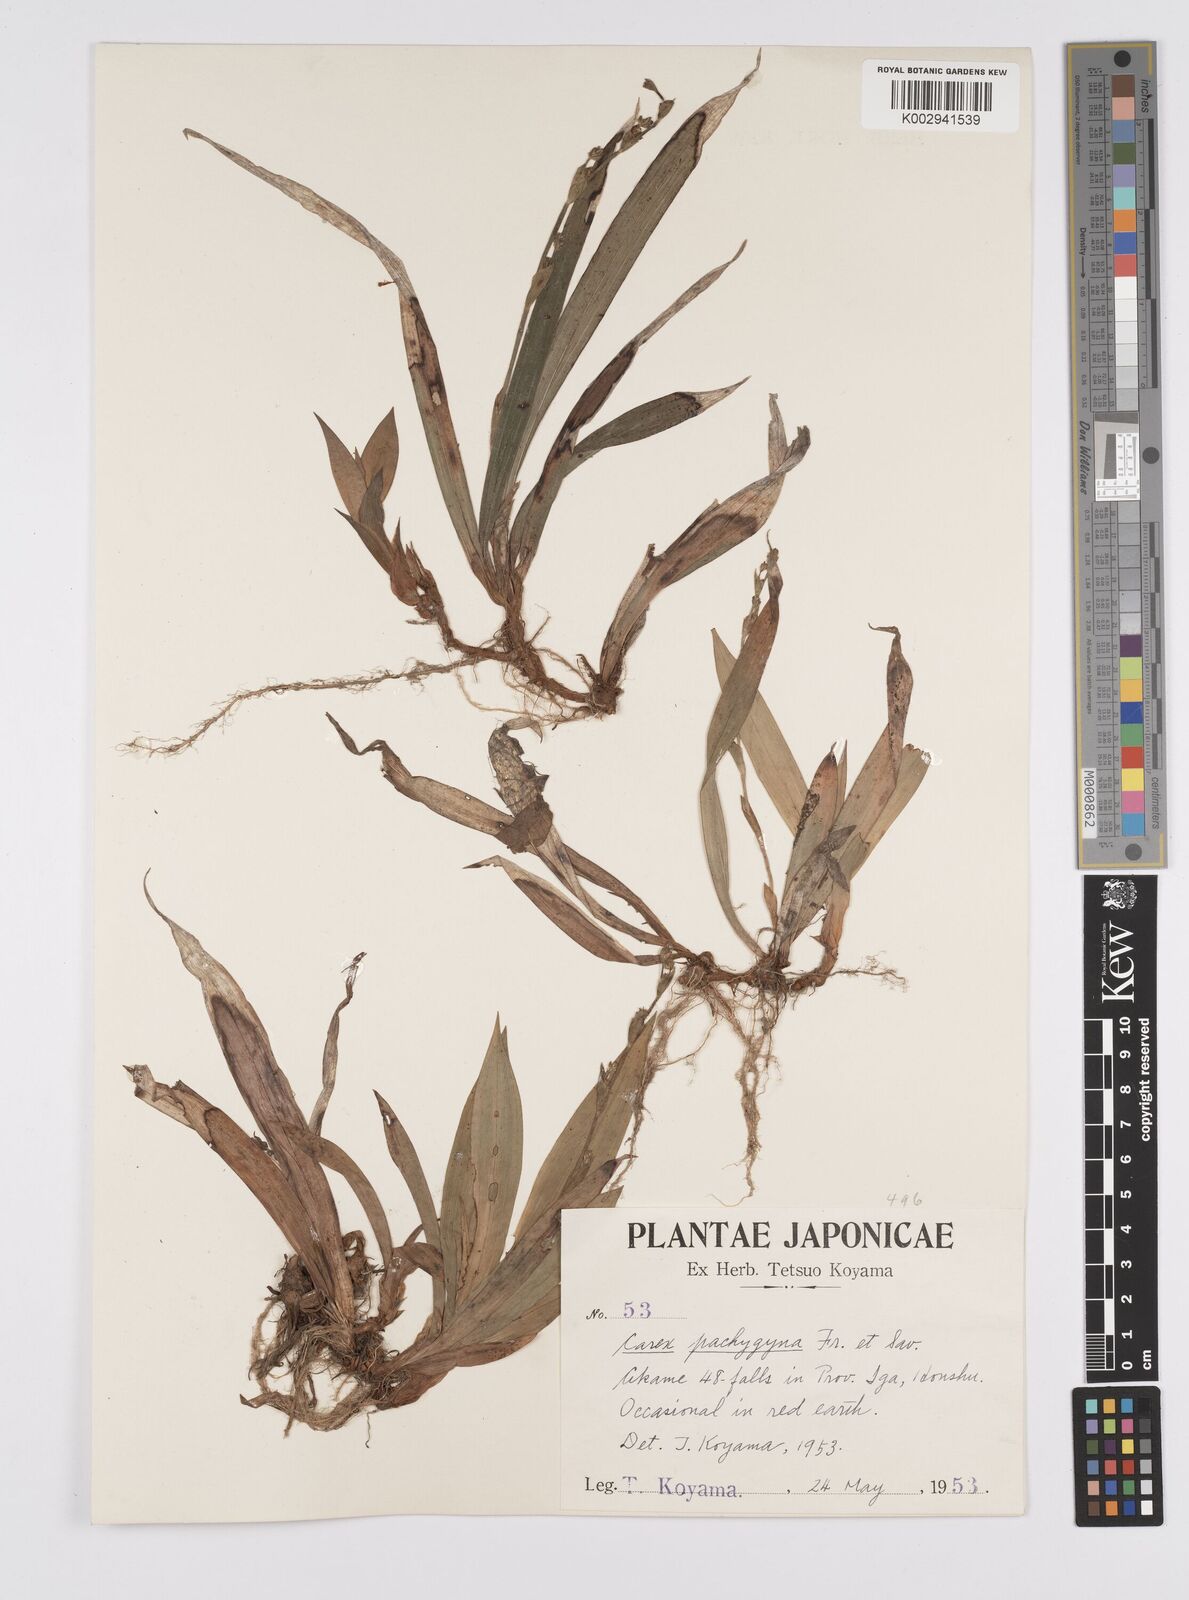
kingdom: Plantae
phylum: Tracheophyta
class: Liliopsida
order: Poales
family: Cyperaceae
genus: Carex
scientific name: Carex pachygyna
